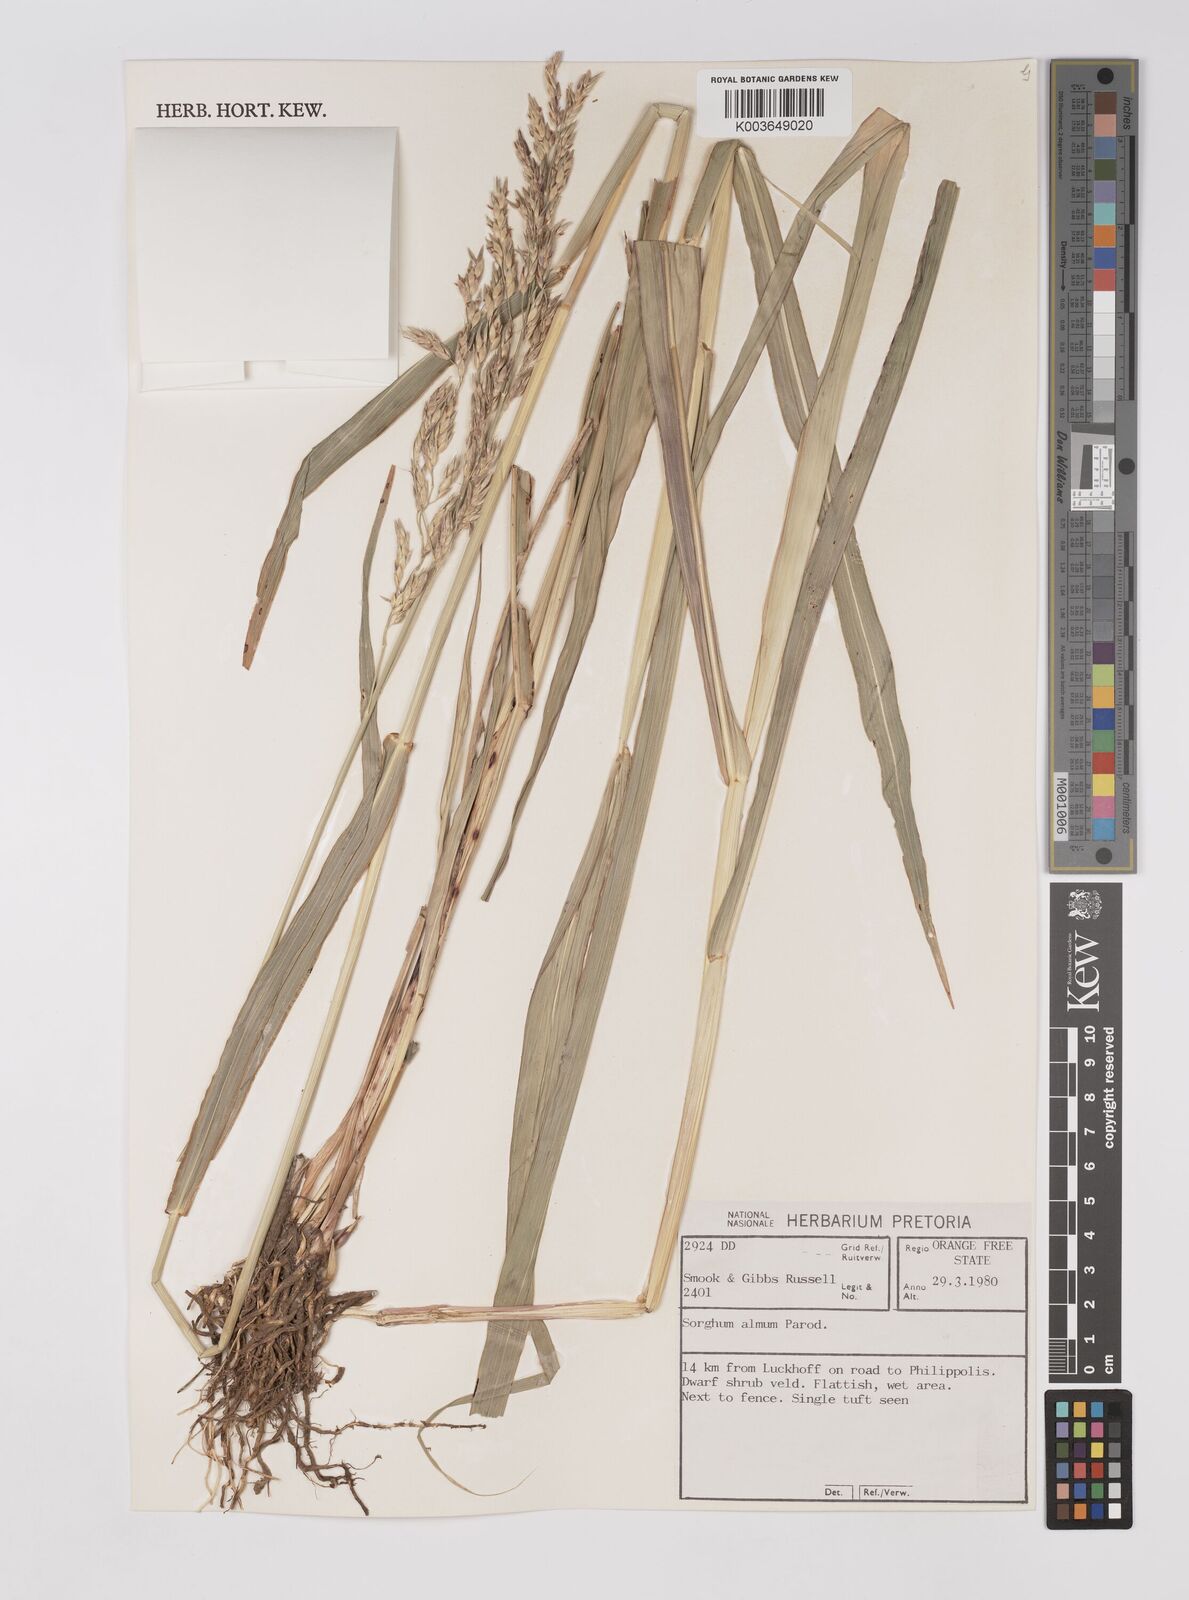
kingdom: Plantae
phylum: Tracheophyta
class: Liliopsida
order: Poales
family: Poaceae
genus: Sorghum
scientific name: Sorghum almum
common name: Columbus grass
